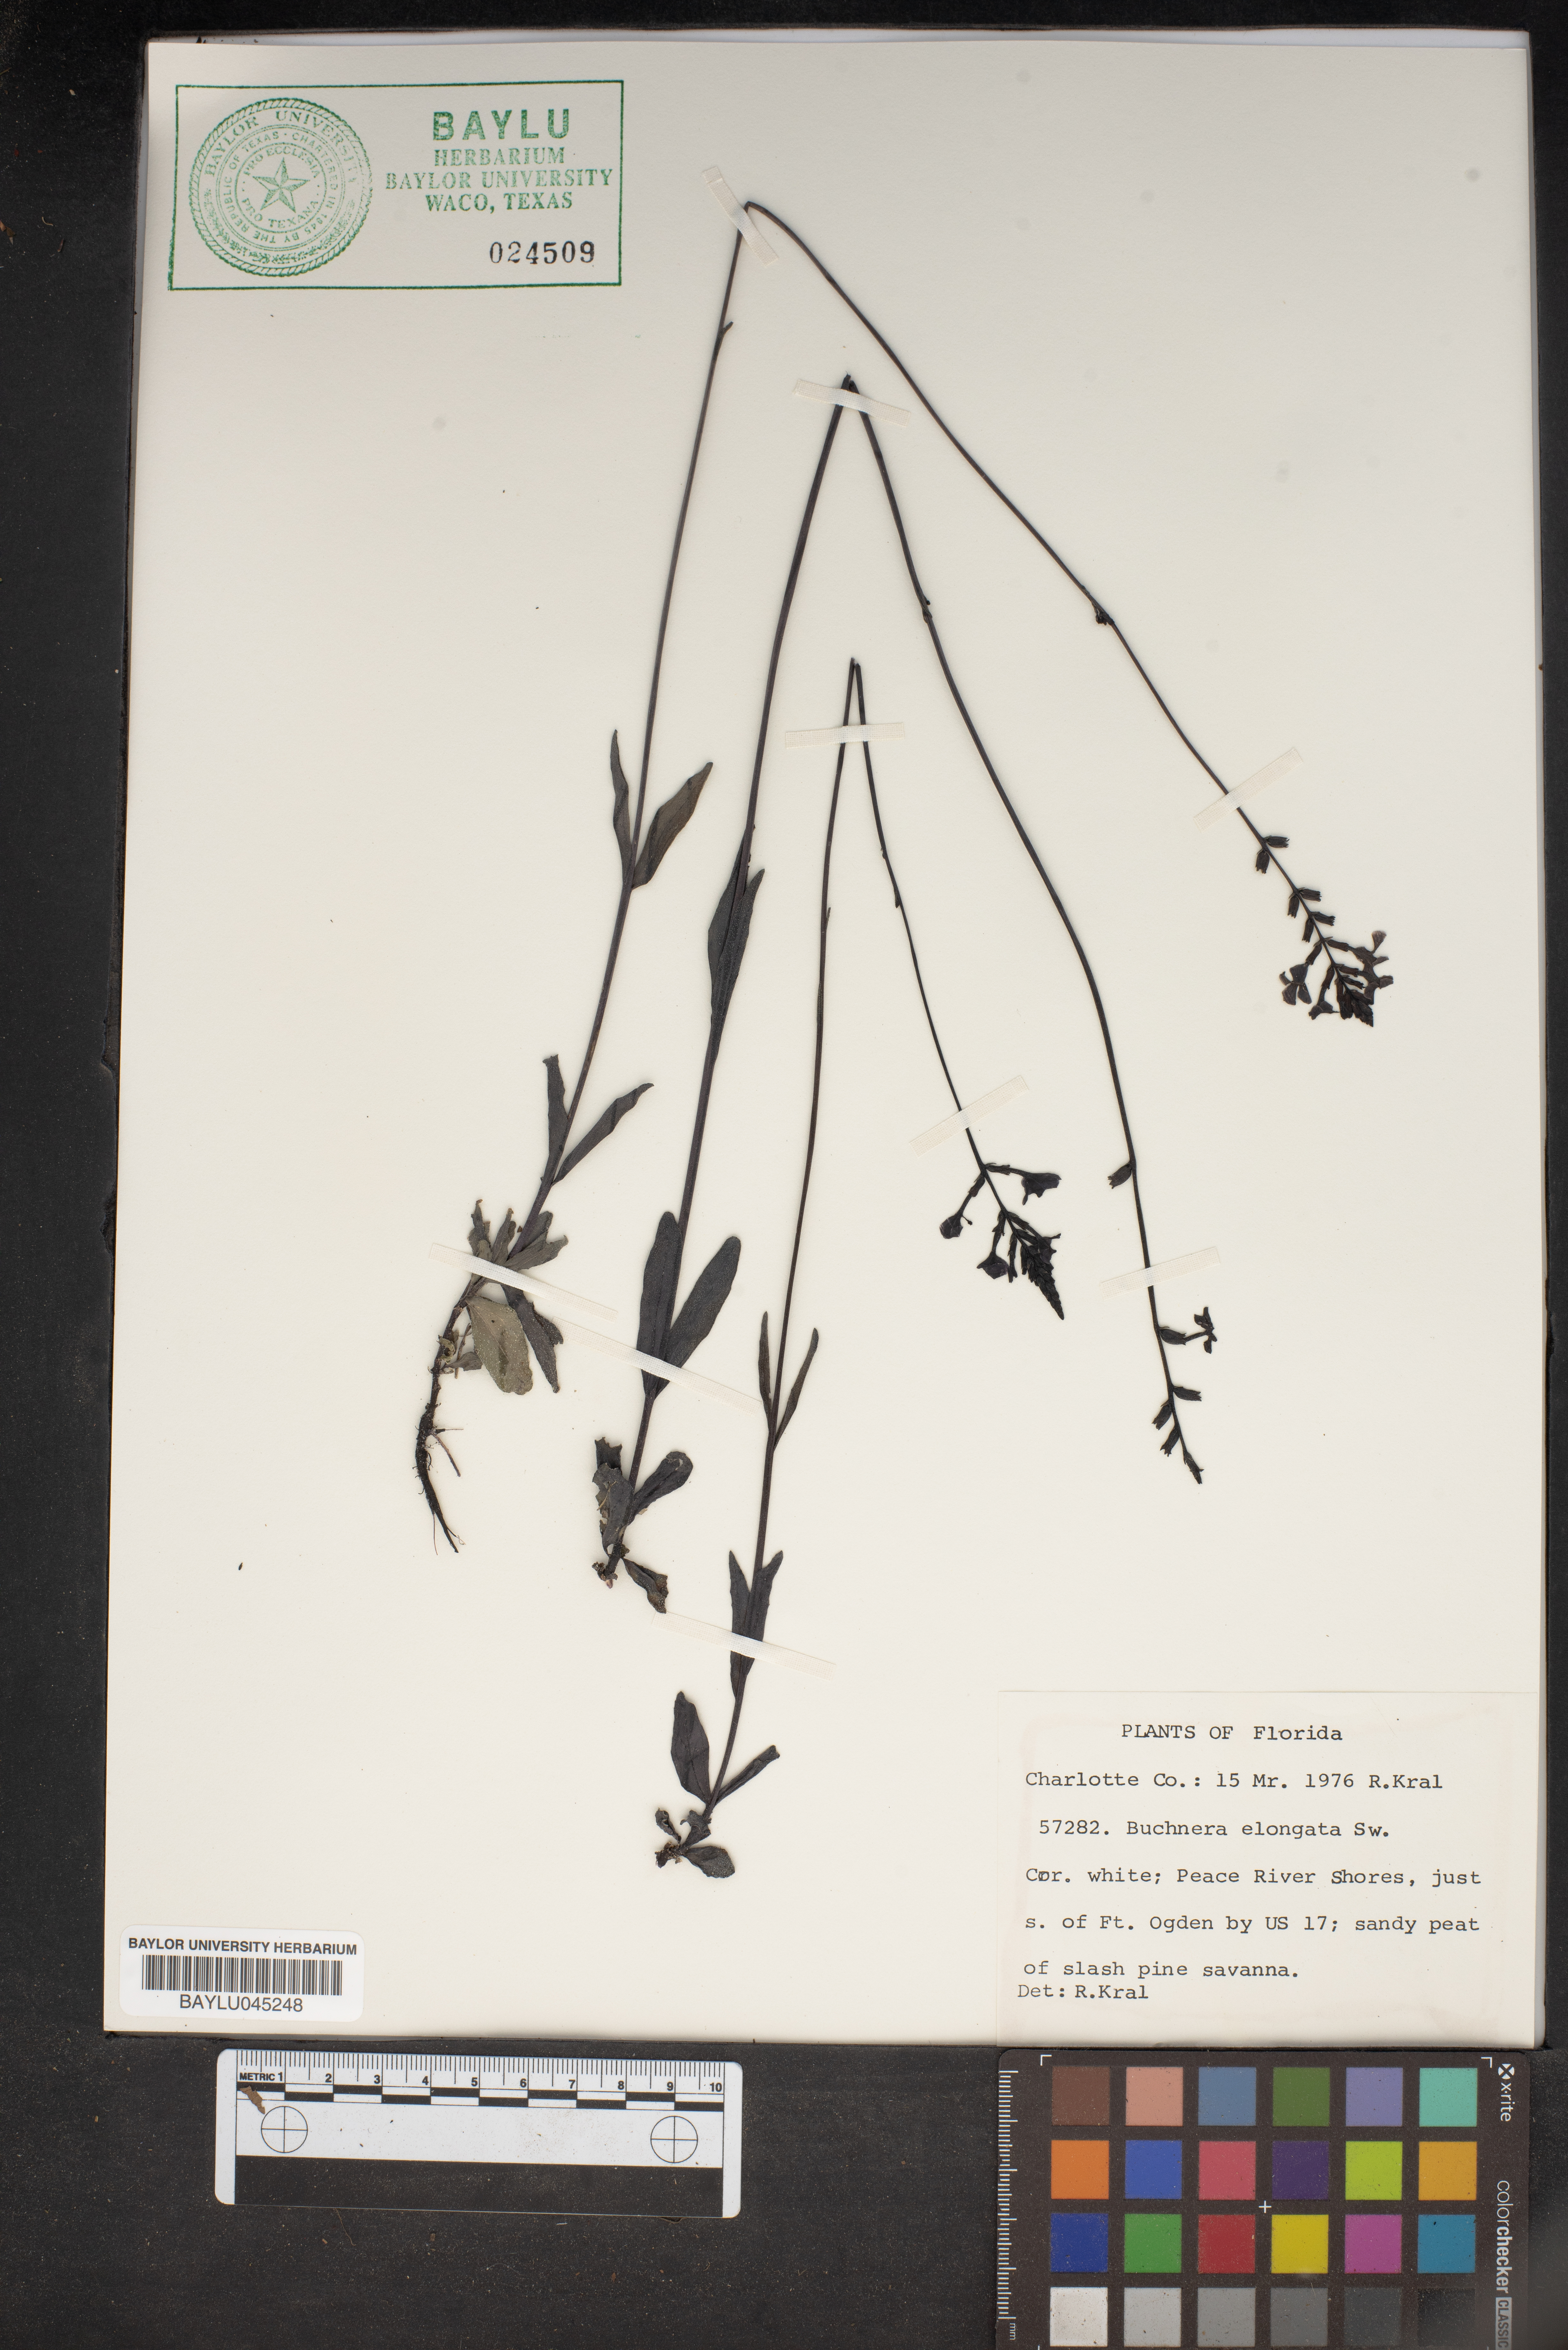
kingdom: Plantae
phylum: Tracheophyta
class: Magnoliopsida
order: Lamiales
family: Orobanchaceae
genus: Buchnera
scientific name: Buchnera
